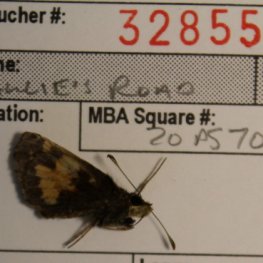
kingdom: Animalia
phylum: Arthropoda
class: Insecta
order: Lepidoptera
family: Hesperiidae
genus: Lon
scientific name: Lon hobomok
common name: Hobomok Skipper
